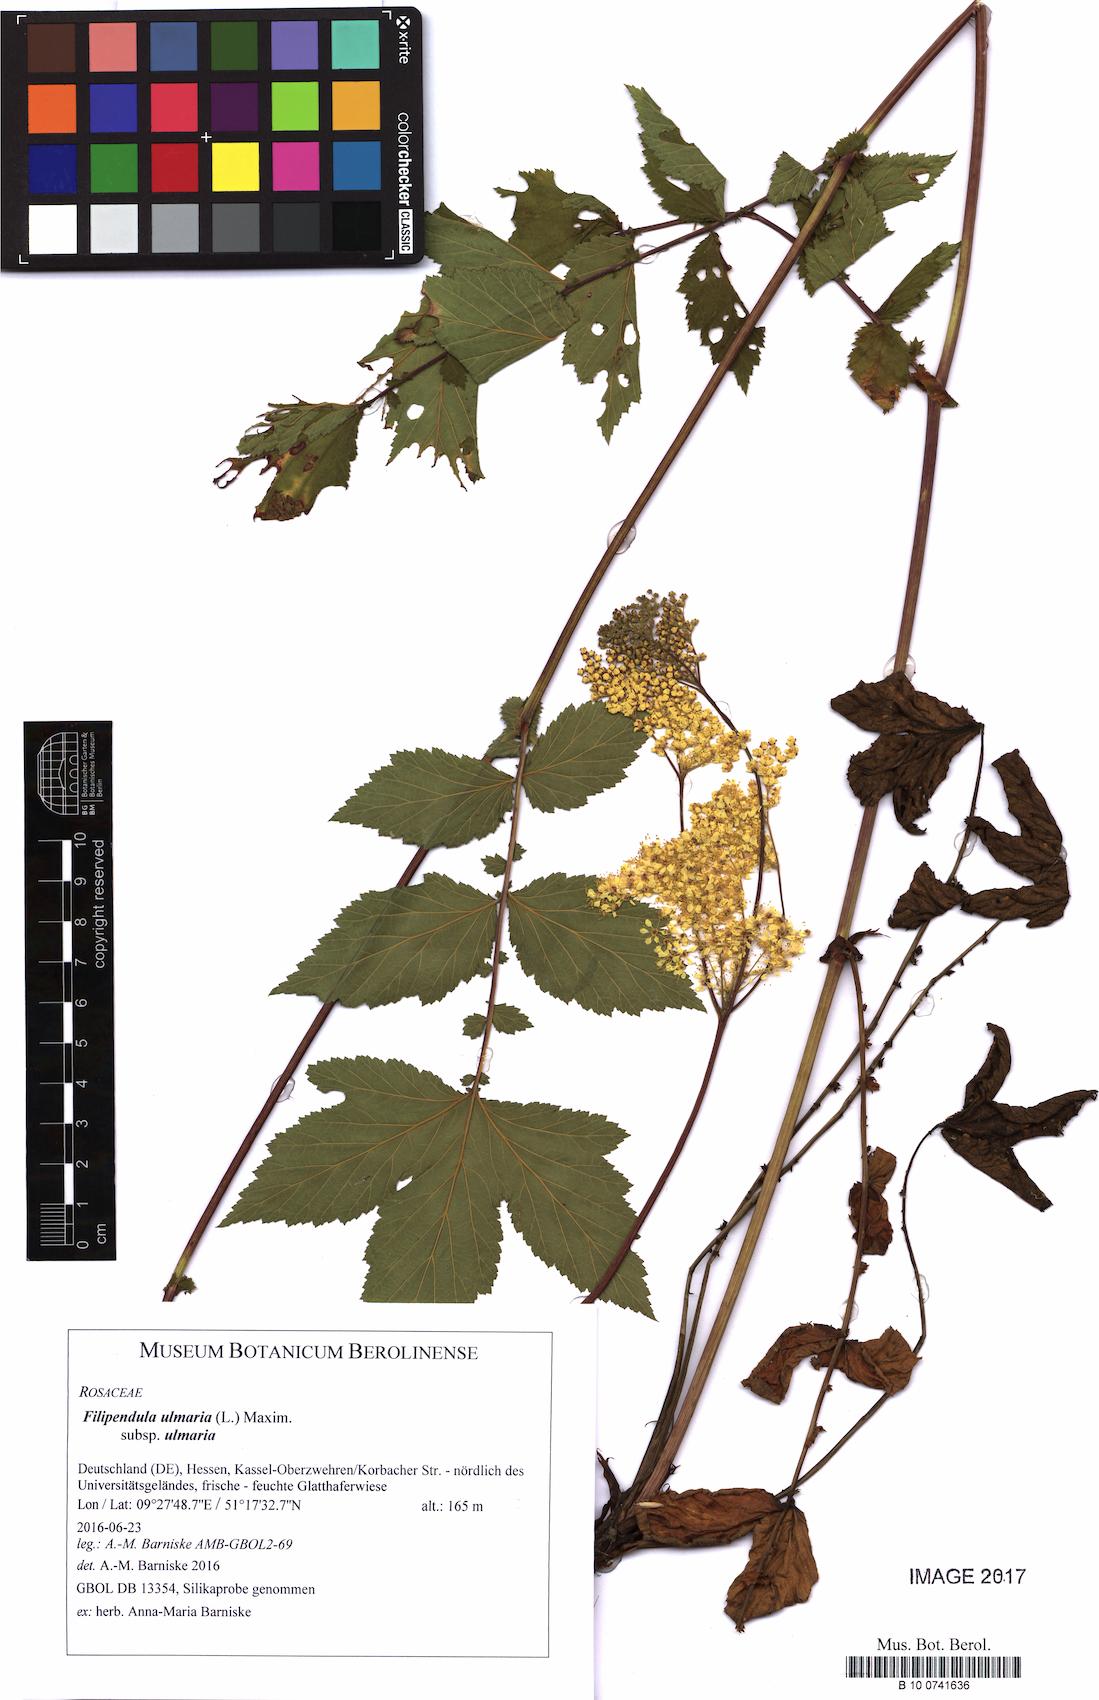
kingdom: Plantae
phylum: Tracheophyta
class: Magnoliopsida
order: Rosales
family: Rosaceae
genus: Filipendula
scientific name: Filipendula ulmaria
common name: Meadowsweet
